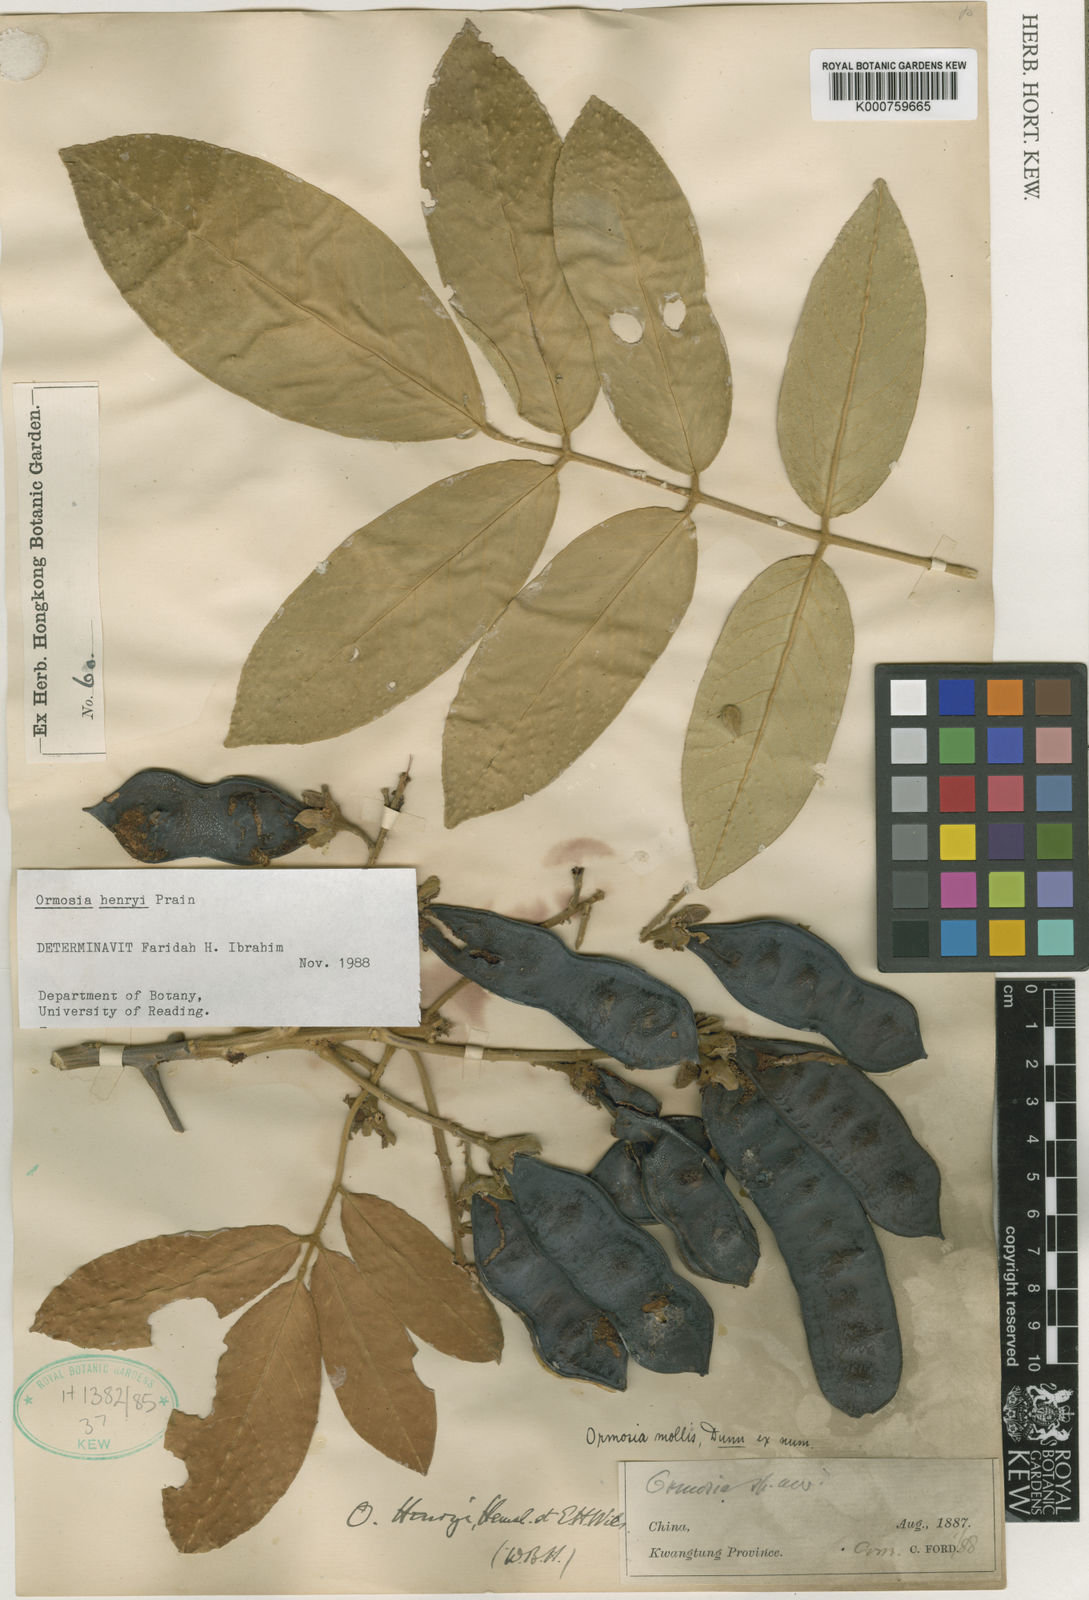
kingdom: Plantae
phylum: Tracheophyta
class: Magnoliopsida
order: Fabales
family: Fabaceae
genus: Ormosia
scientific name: Ormosia henryi
